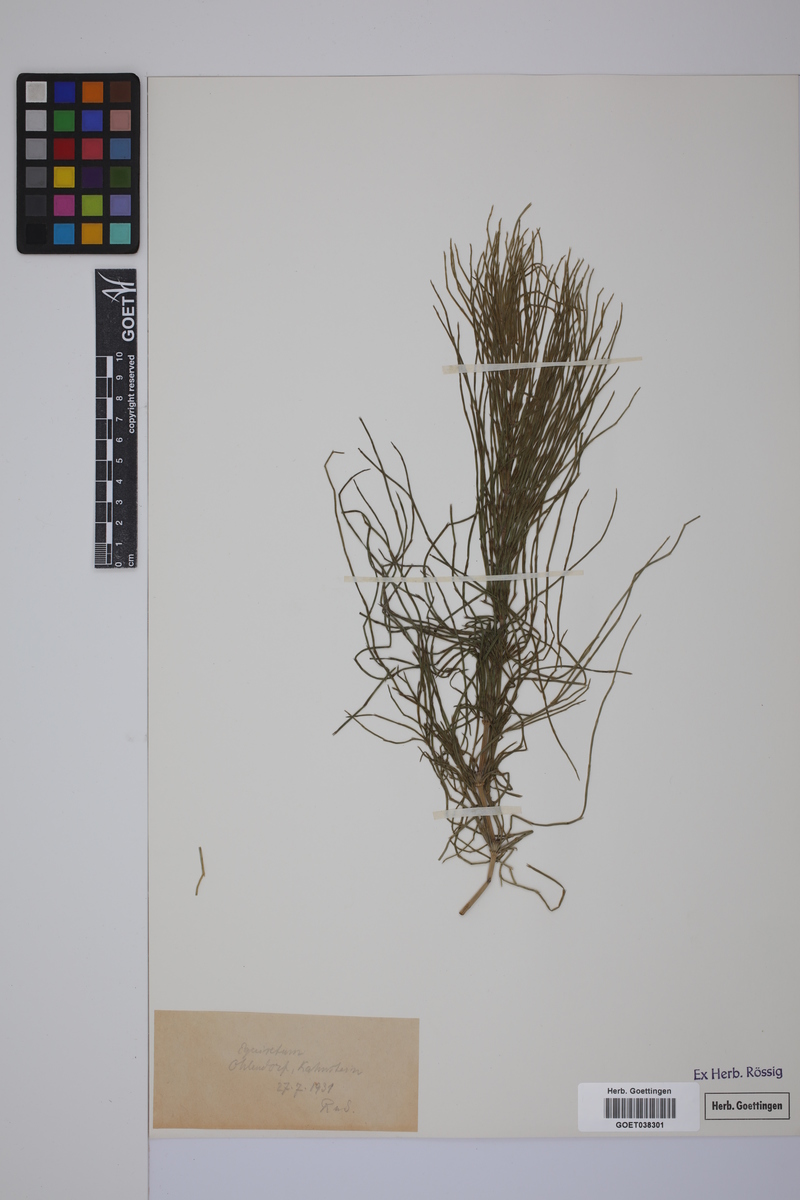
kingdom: Plantae
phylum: Tracheophyta
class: Polypodiopsida
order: Equisetales
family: Equisetaceae
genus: Equisetum
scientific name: Equisetum arvense
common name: Field horsetail
